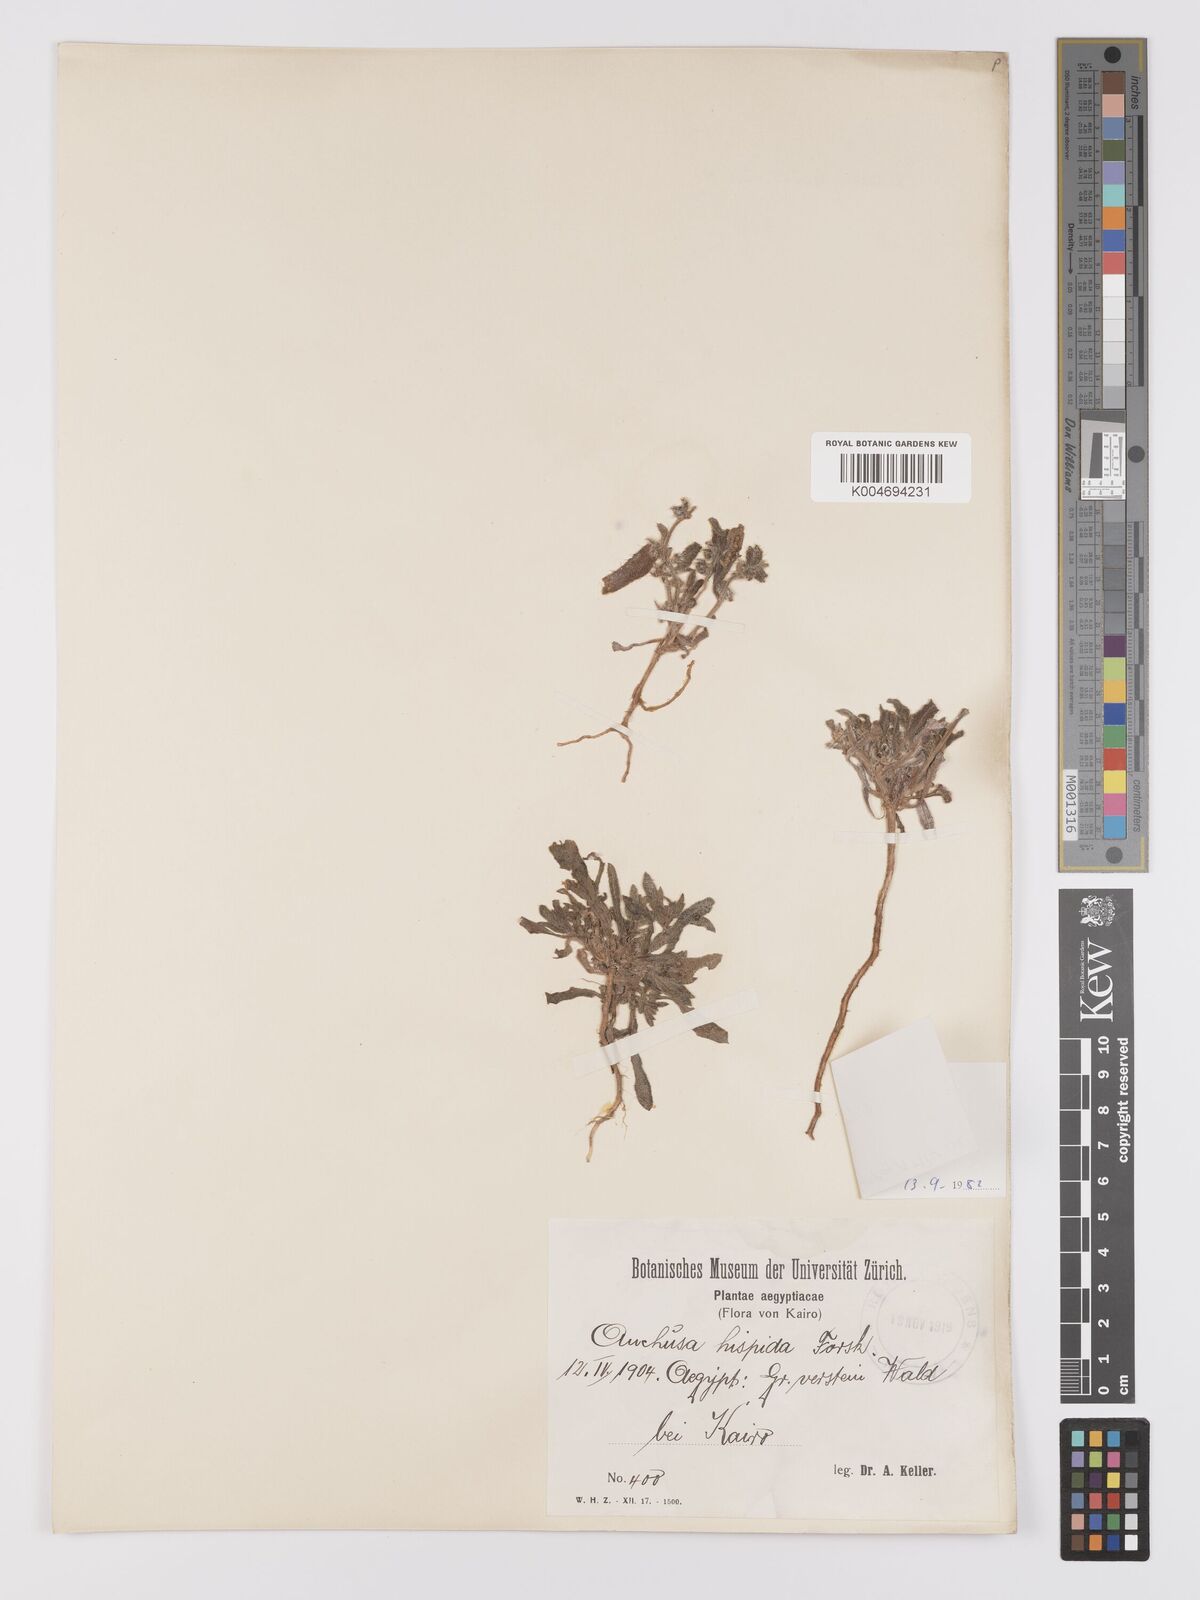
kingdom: Plantae
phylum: Tracheophyta
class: Magnoliopsida
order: Boraginales
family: Boraginaceae
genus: Gastrocotyle
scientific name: Gastrocotyle hispida
